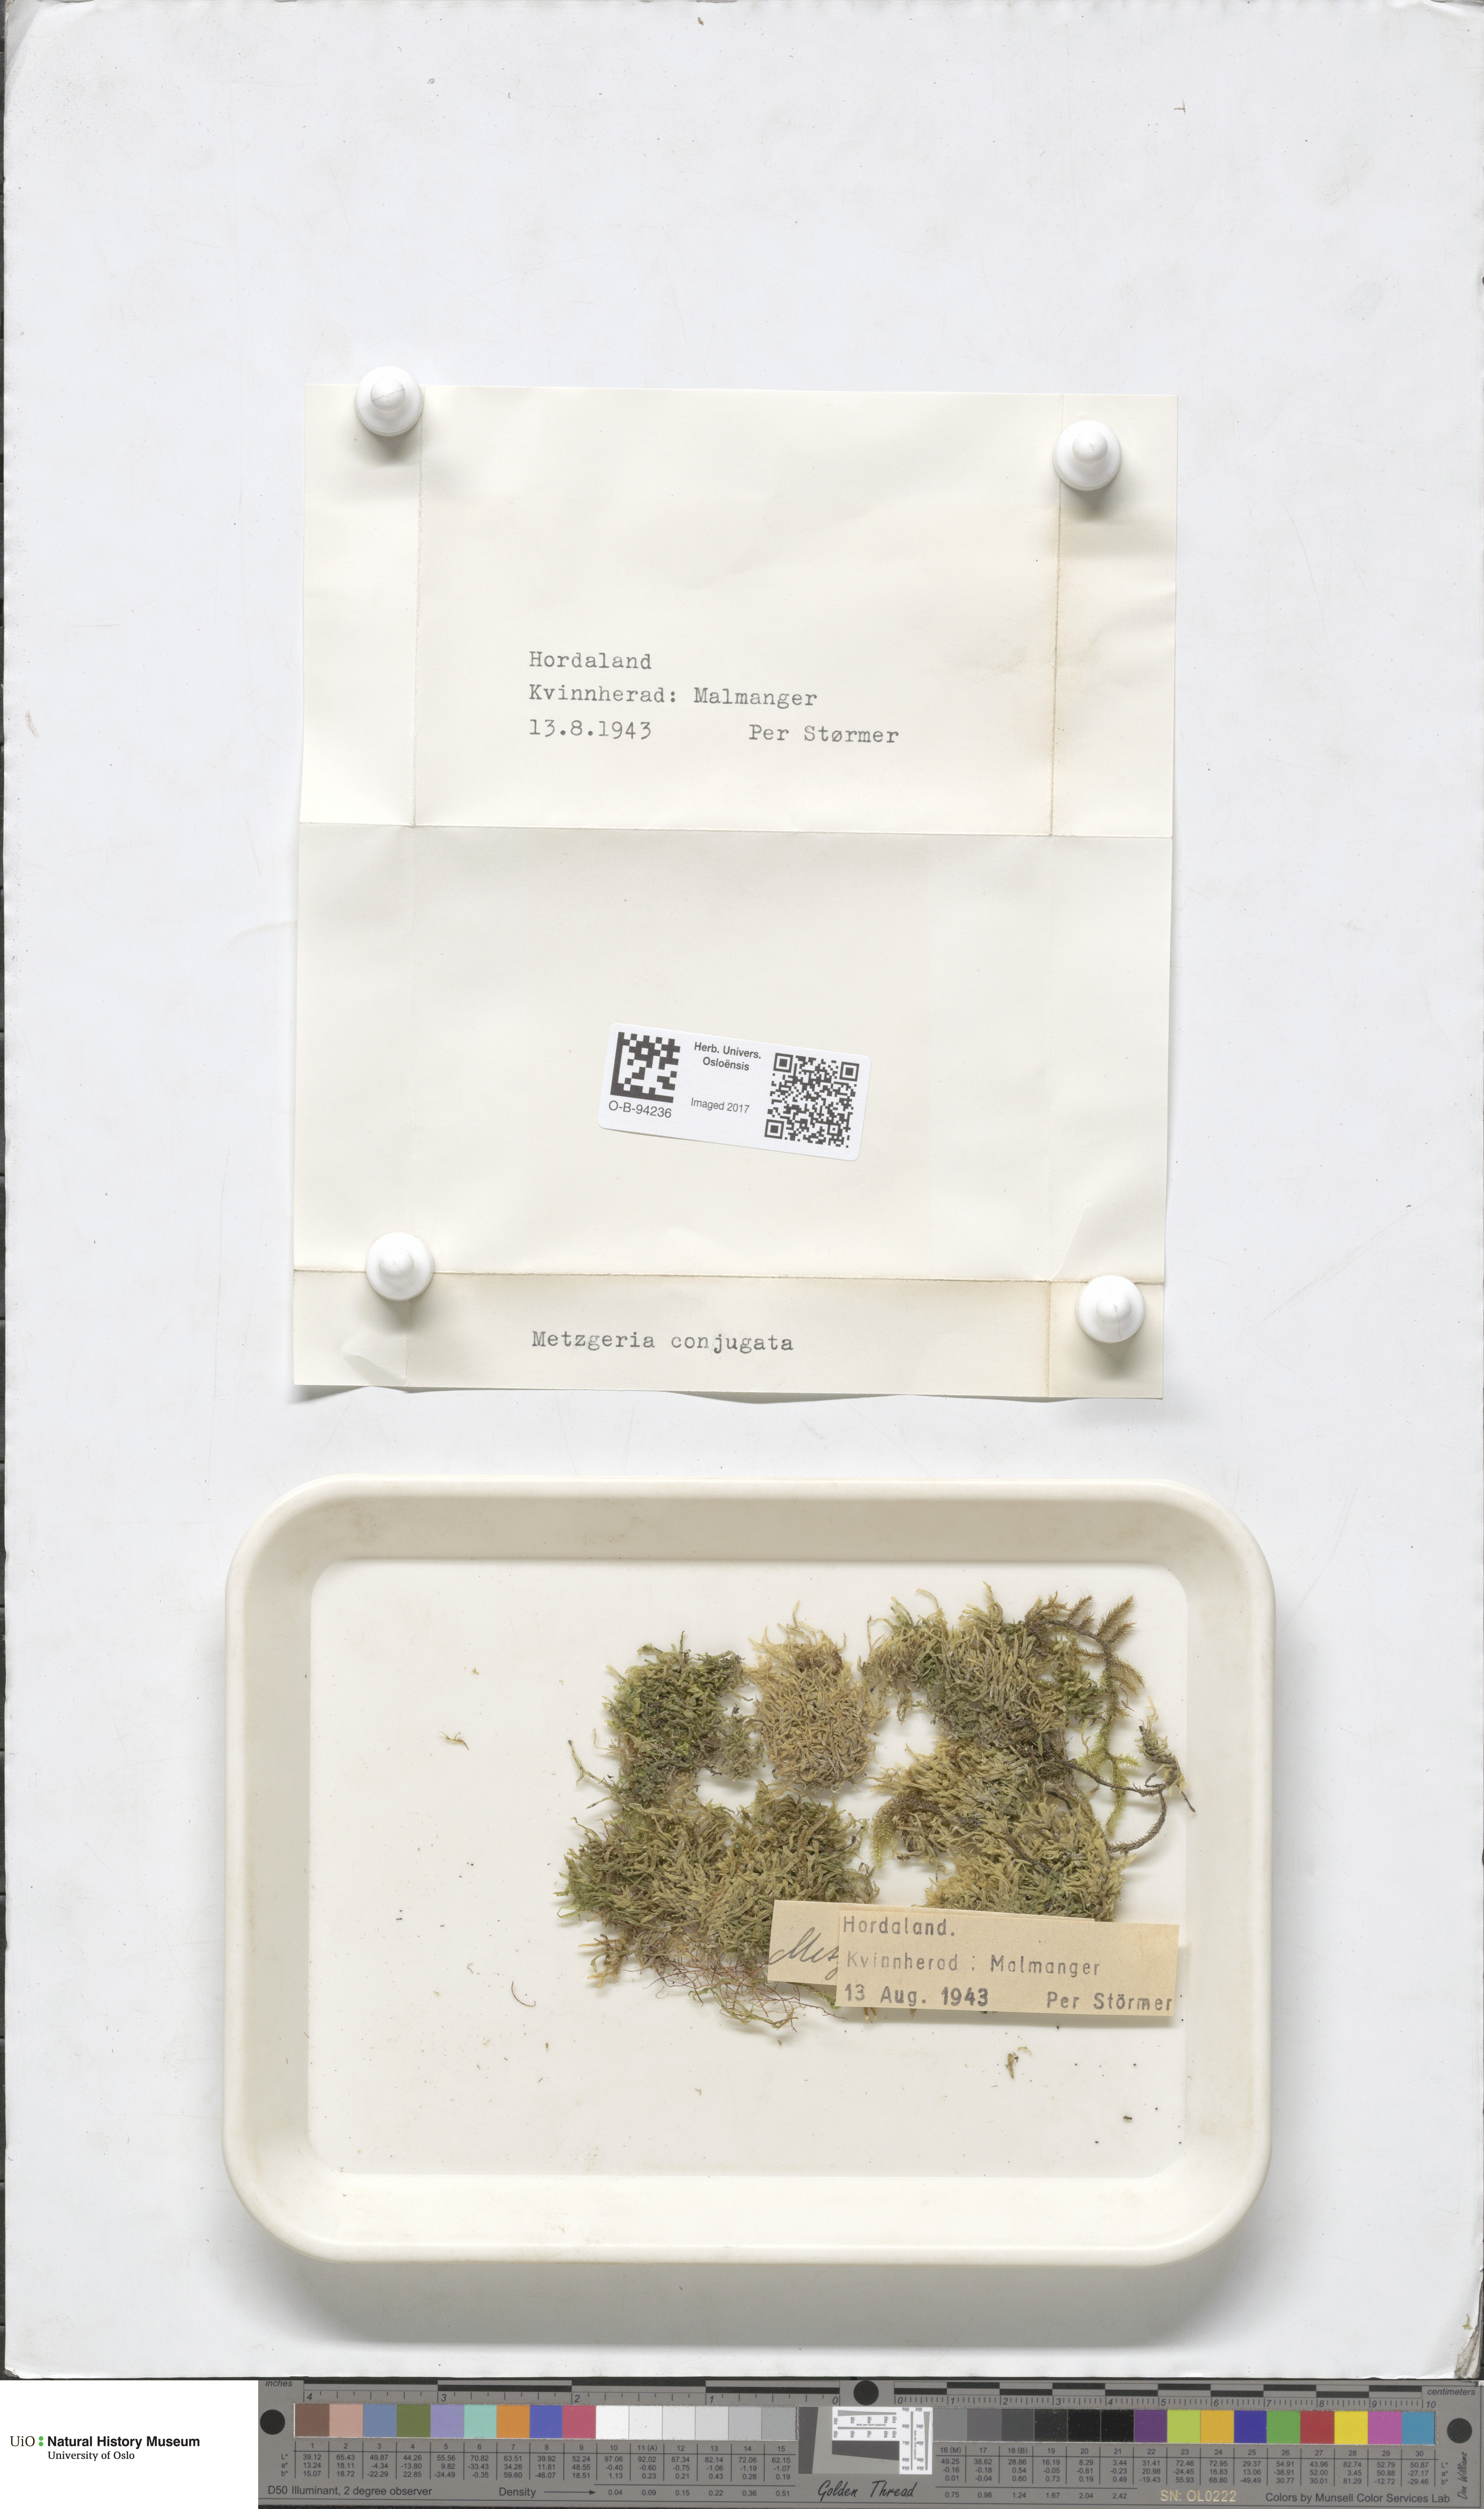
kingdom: Plantae
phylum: Marchantiophyta
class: Jungermanniopsida
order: Metzgeriales
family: Metzgeriaceae
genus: Metzgeria
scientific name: Metzgeria conjugata
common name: Rock veilwort
